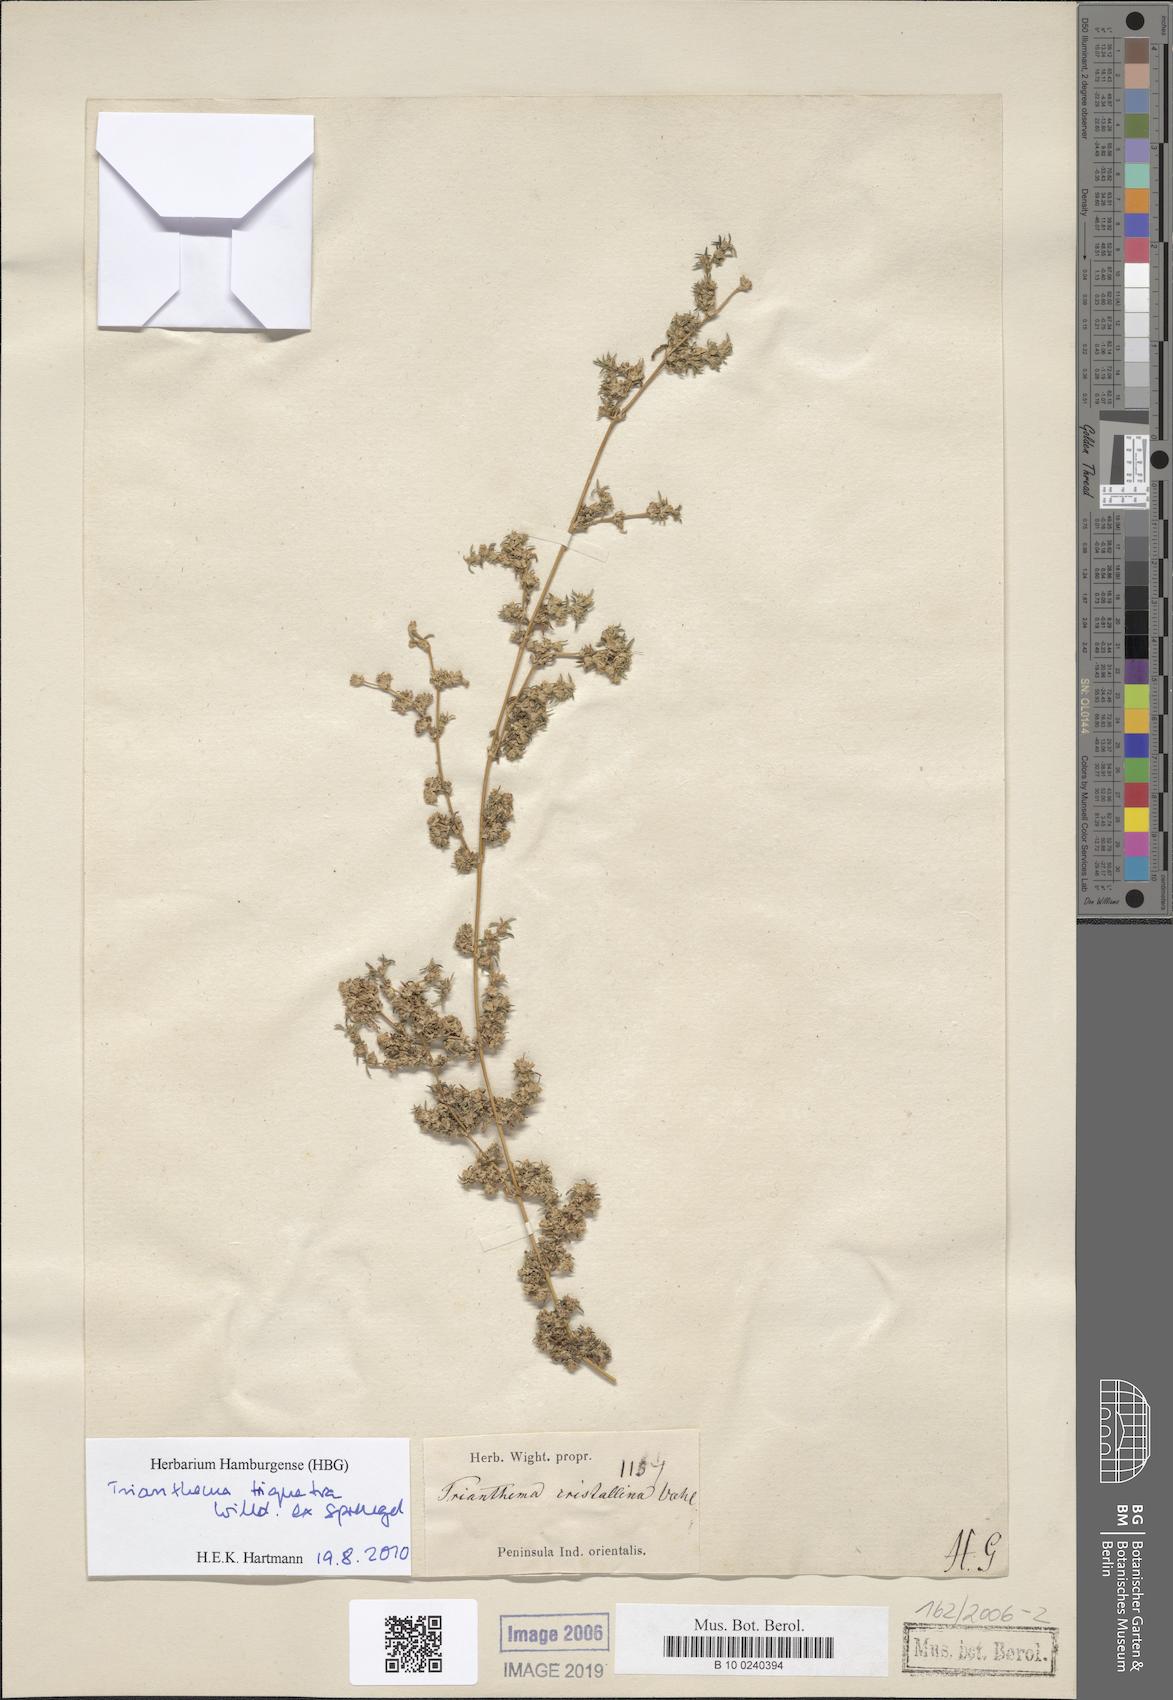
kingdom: Plantae
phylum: Tracheophyta
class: Magnoliopsida
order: Caryophyllales
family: Aizoaceae
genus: Trianthema
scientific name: Trianthema crystallinum
